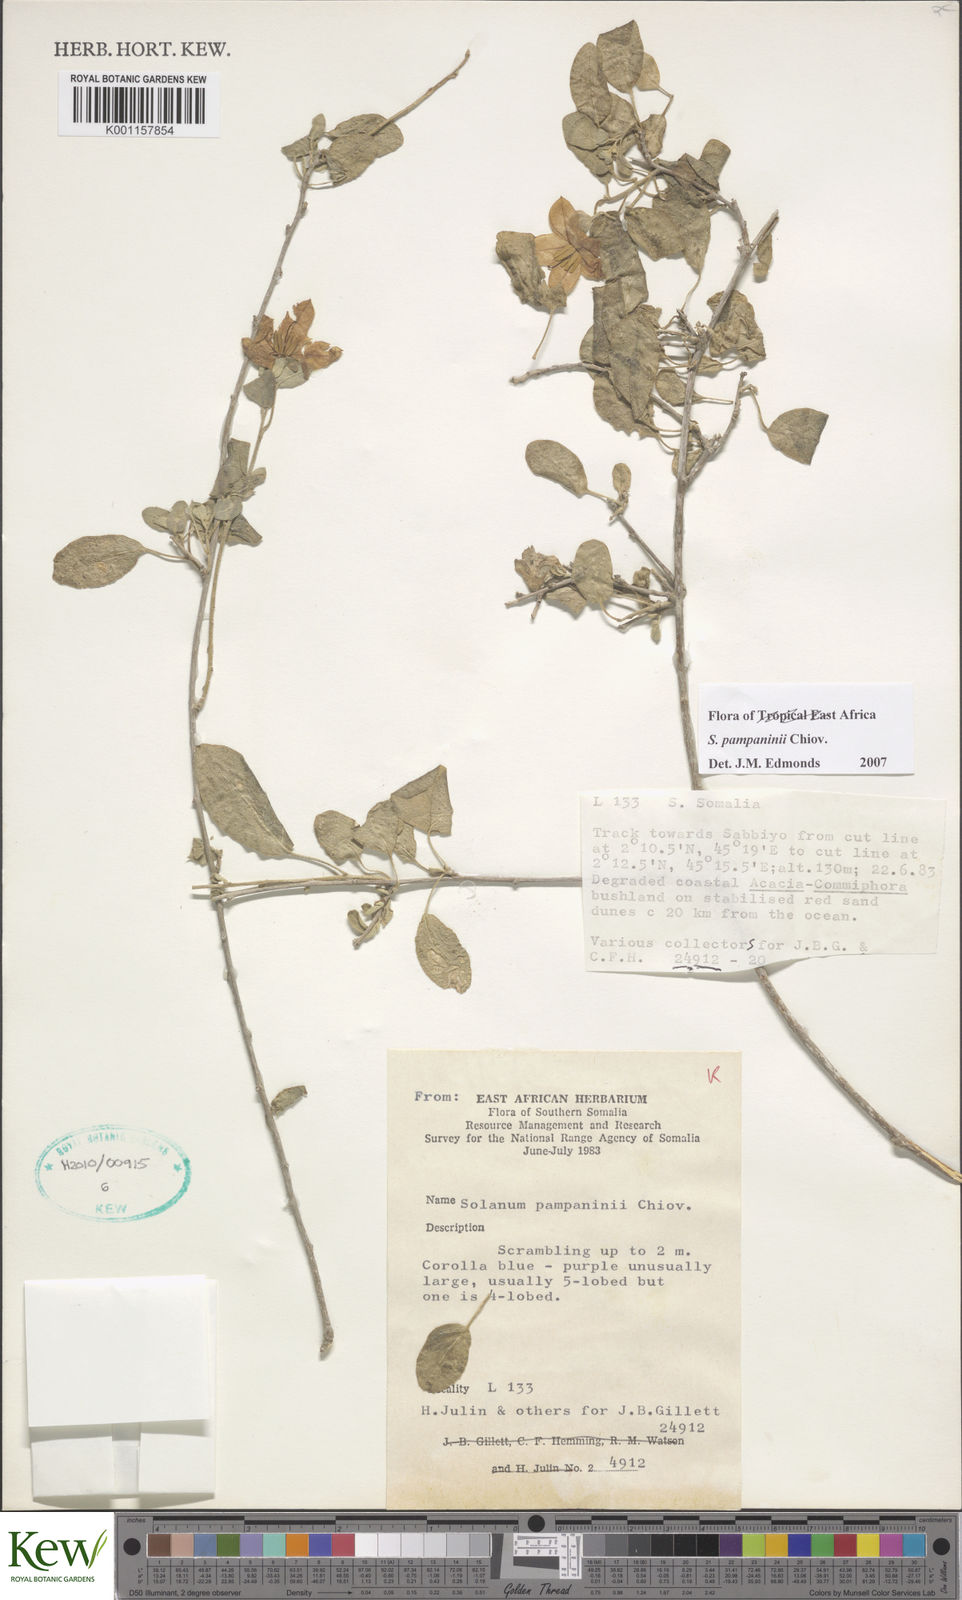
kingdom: Plantae
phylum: Tracheophyta
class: Magnoliopsida
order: Solanales
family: Solanaceae
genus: Solanum
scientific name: Solanum pampaninii
